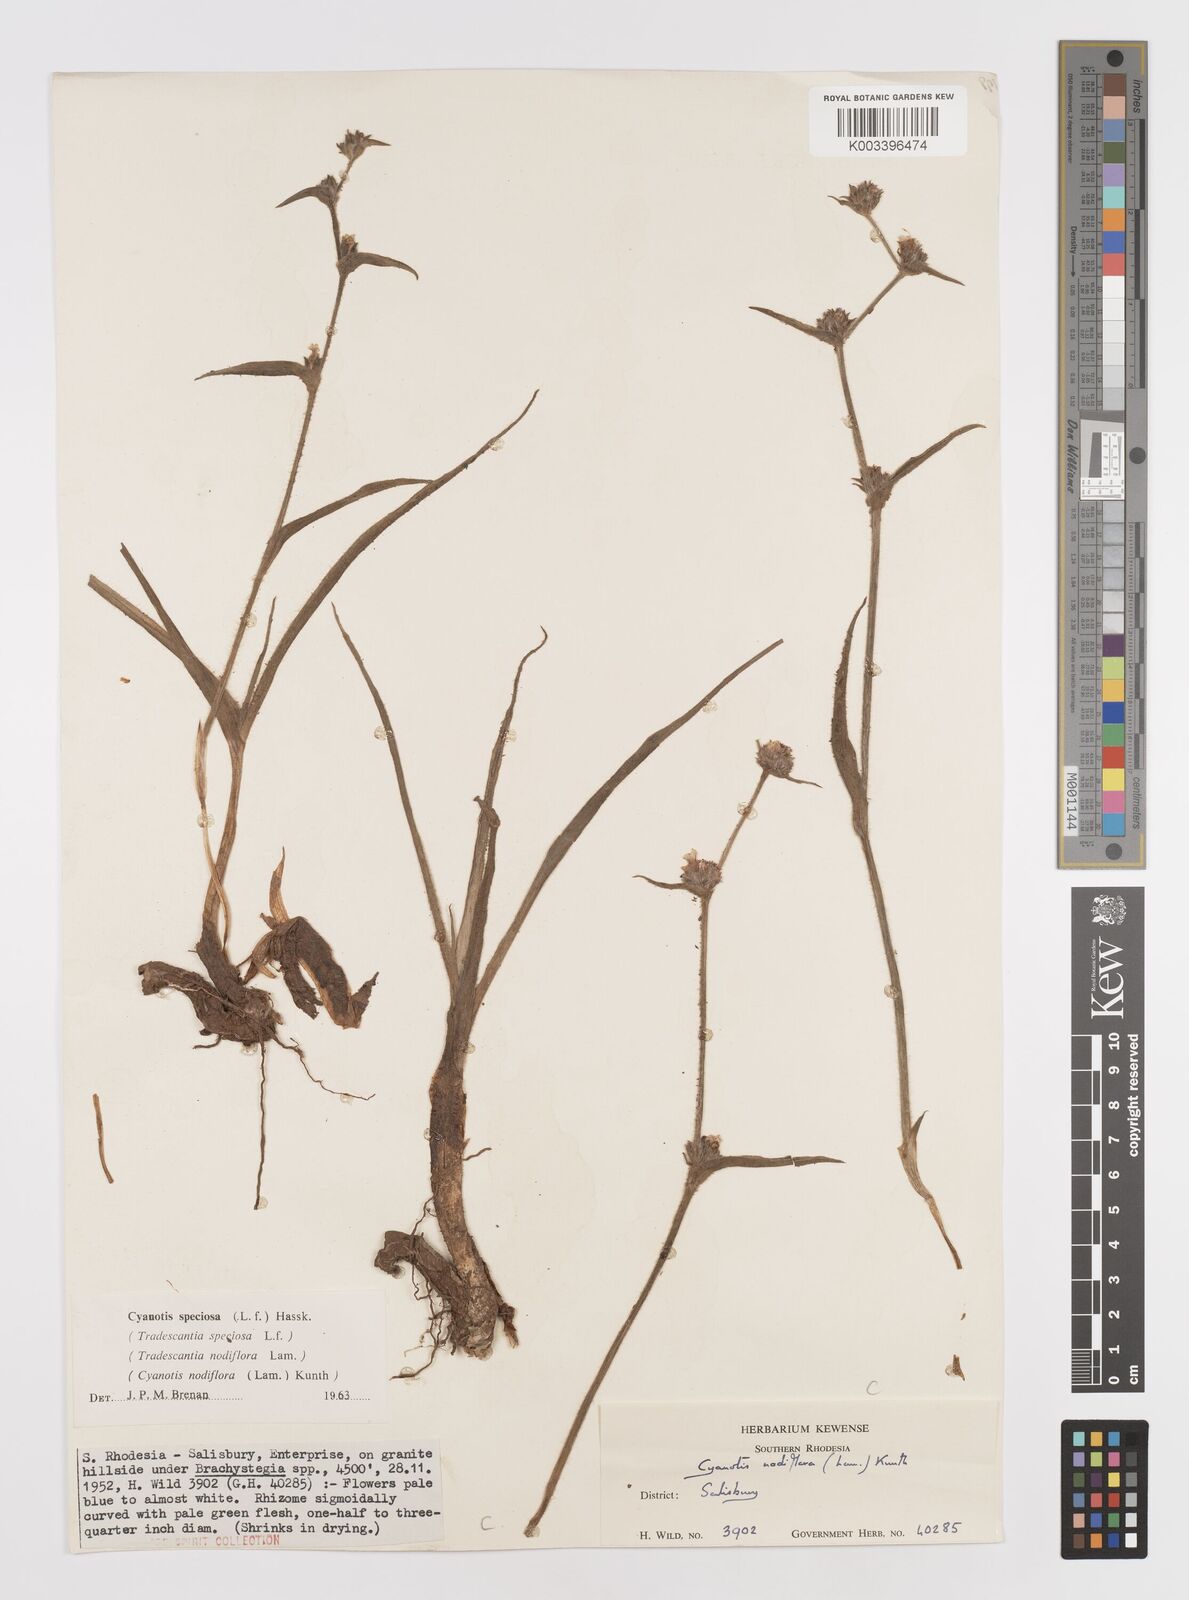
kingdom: Plantae
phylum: Tracheophyta
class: Liliopsida
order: Commelinales
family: Commelinaceae
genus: Cyanotis
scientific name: Cyanotis speciosa
